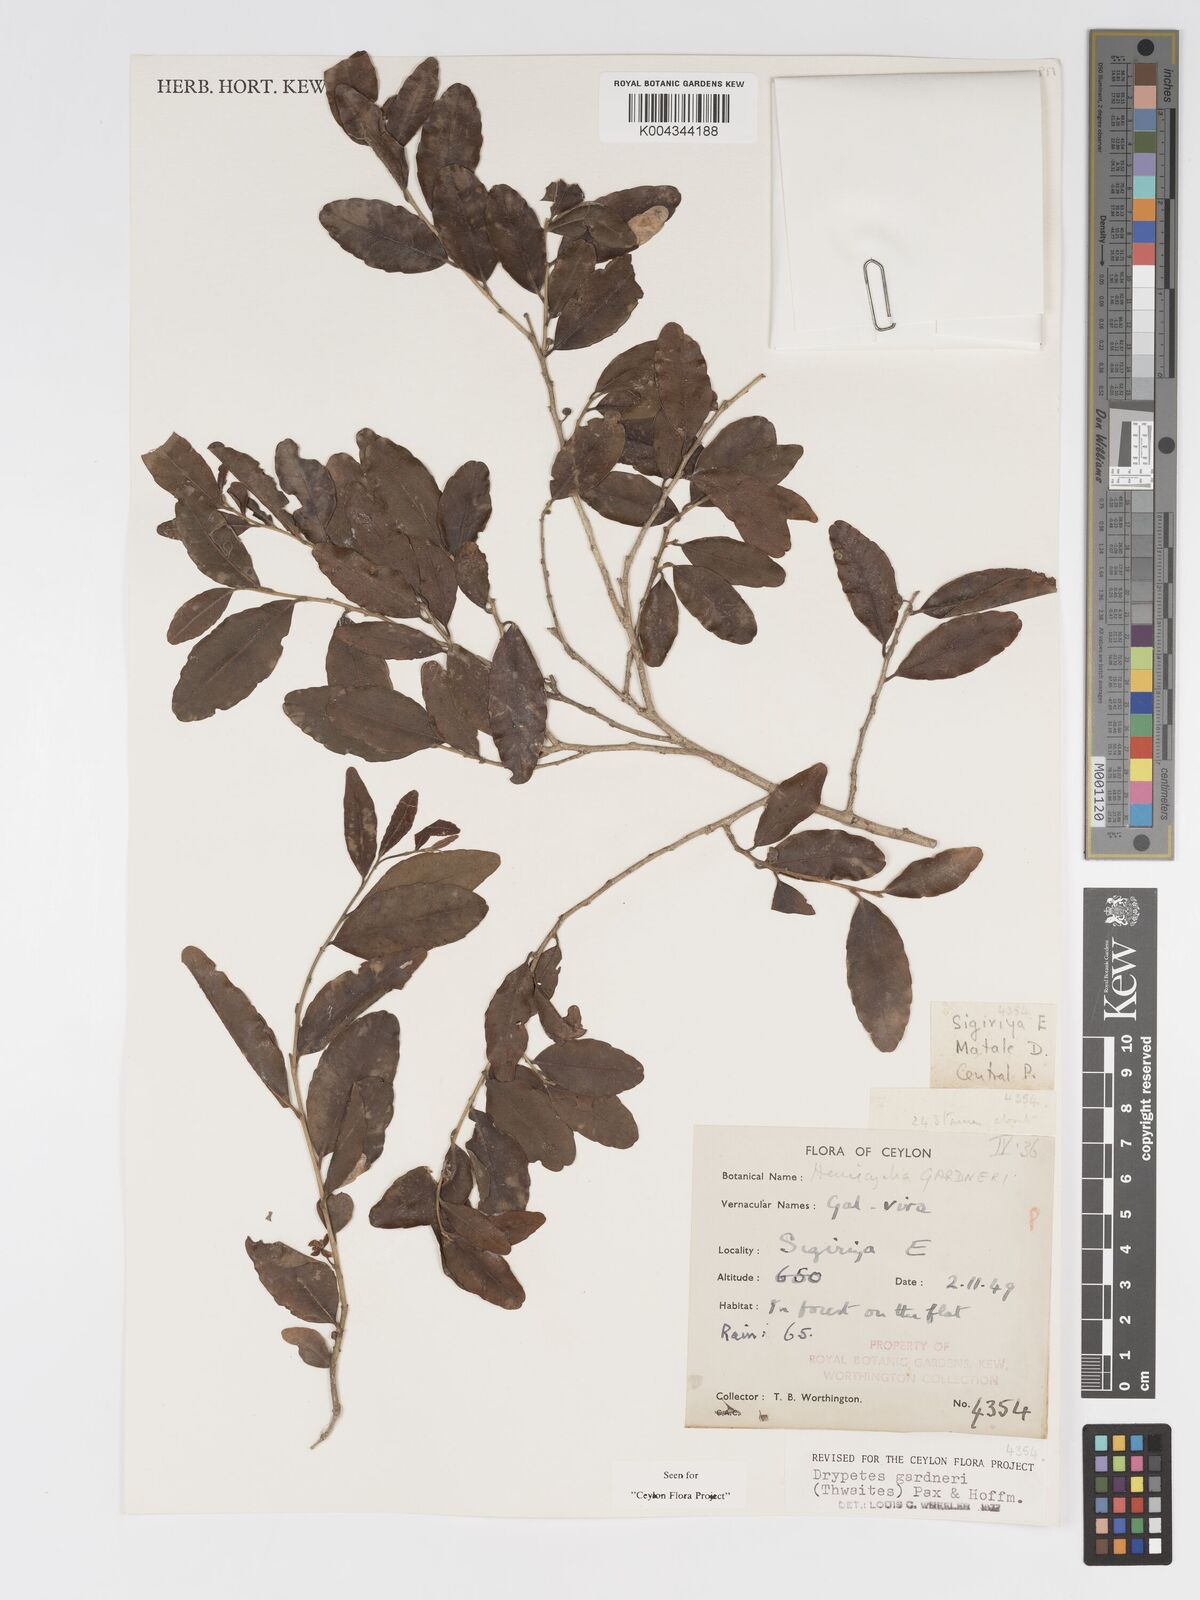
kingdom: Plantae
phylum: Tracheophyta
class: Magnoliopsida
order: Malpighiales
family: Putranjivaceae
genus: Drypetes
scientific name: Drypetes gardneri
